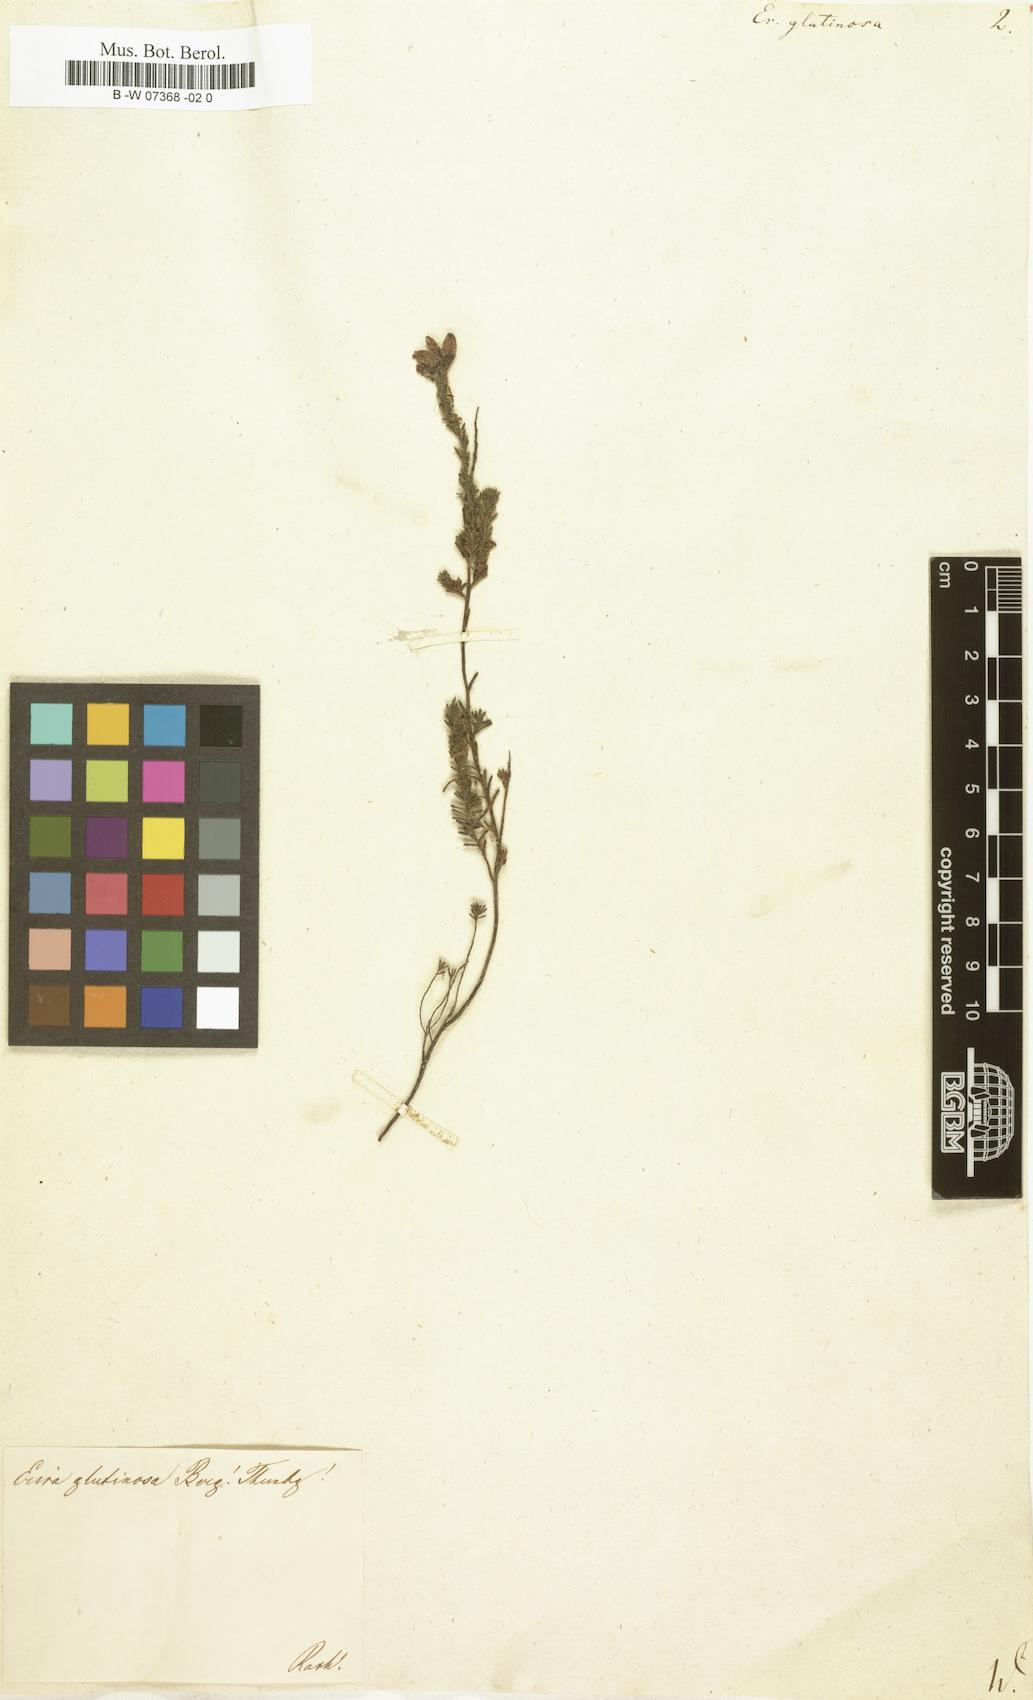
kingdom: Plantae
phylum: Tracheophyta
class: Magnoliopsida
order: Ericales
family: Ericaceae
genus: Erica
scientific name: Erica glutinosa
